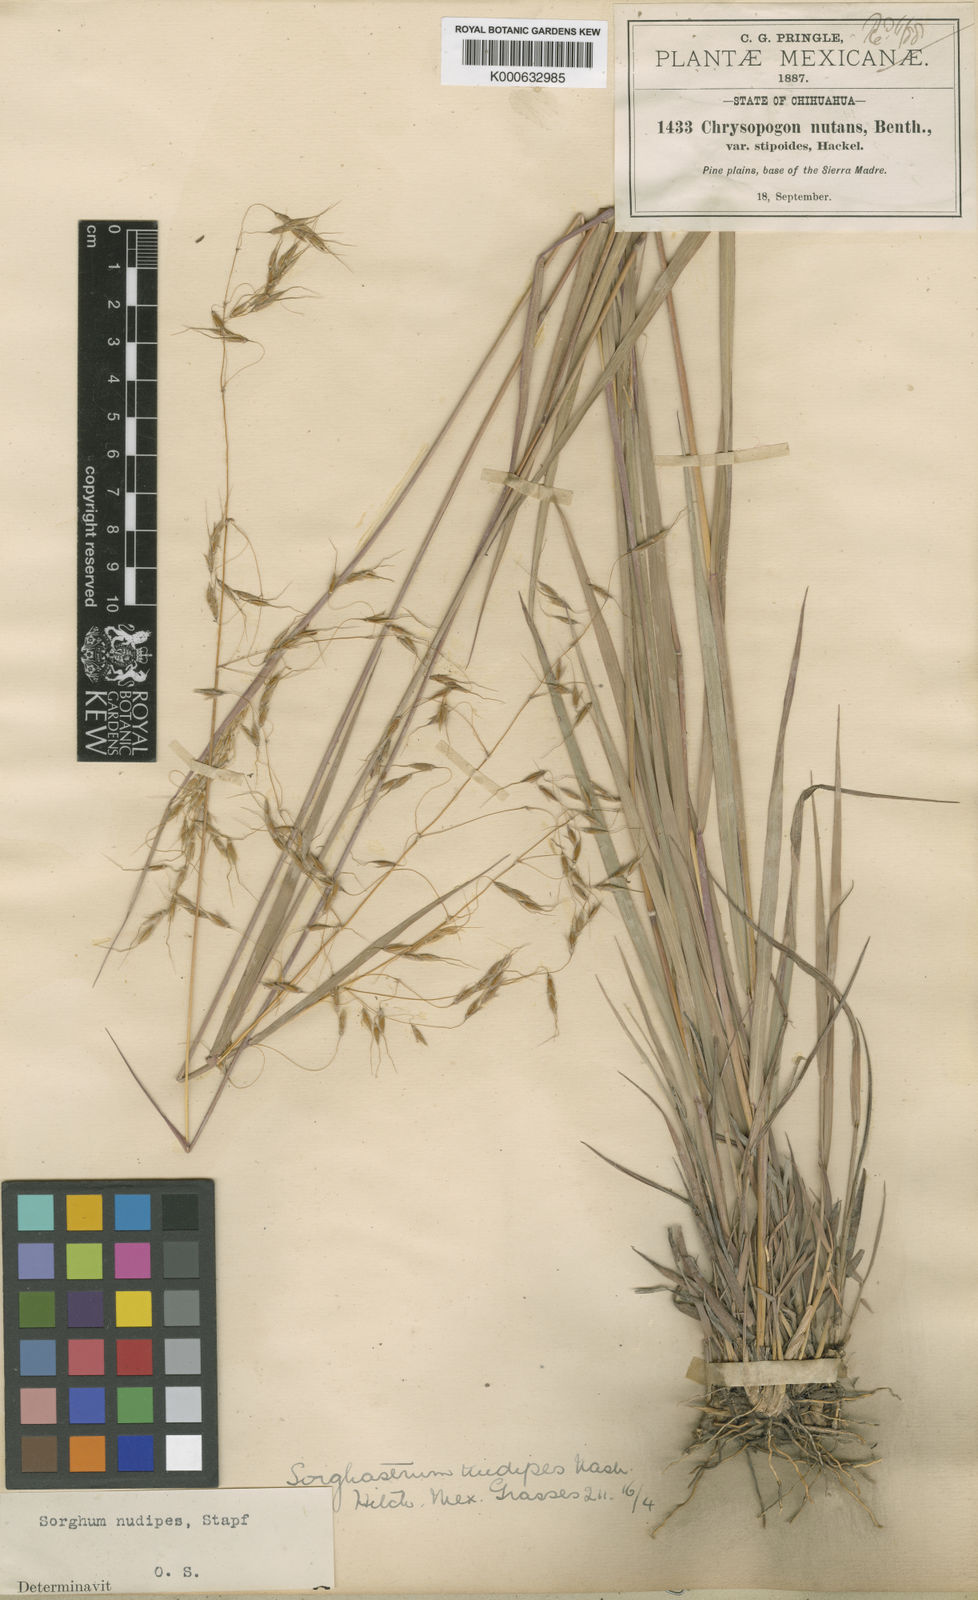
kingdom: Plantae
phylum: Tracheophyta
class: Liliopsida
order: Poales
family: Poaceae
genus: Sorghastrum
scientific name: Sorghastrum nudipes
